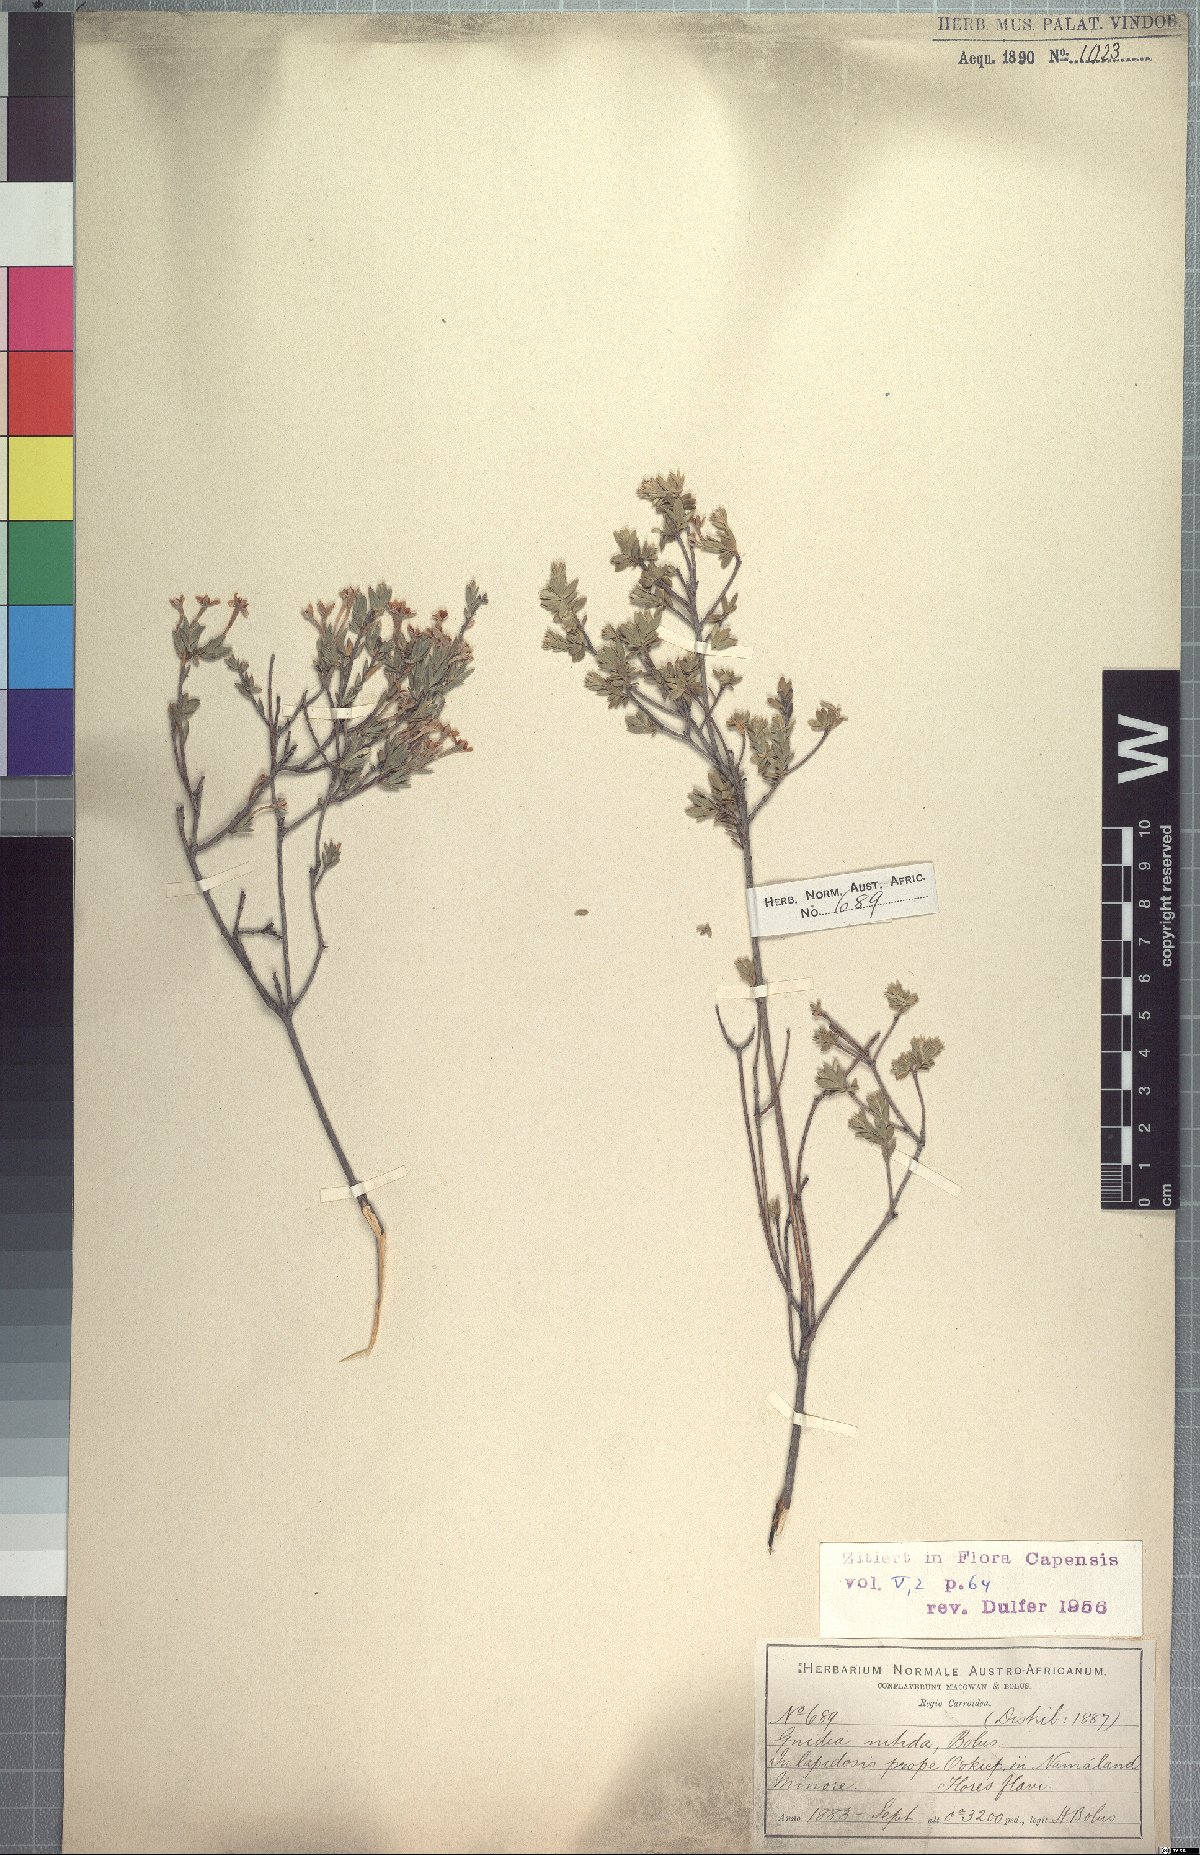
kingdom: Plantae
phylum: Tracheophyta
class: Magnoliopsida
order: Malvales
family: Thymelaeaceae
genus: Gnidia
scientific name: Gnidia nitida
